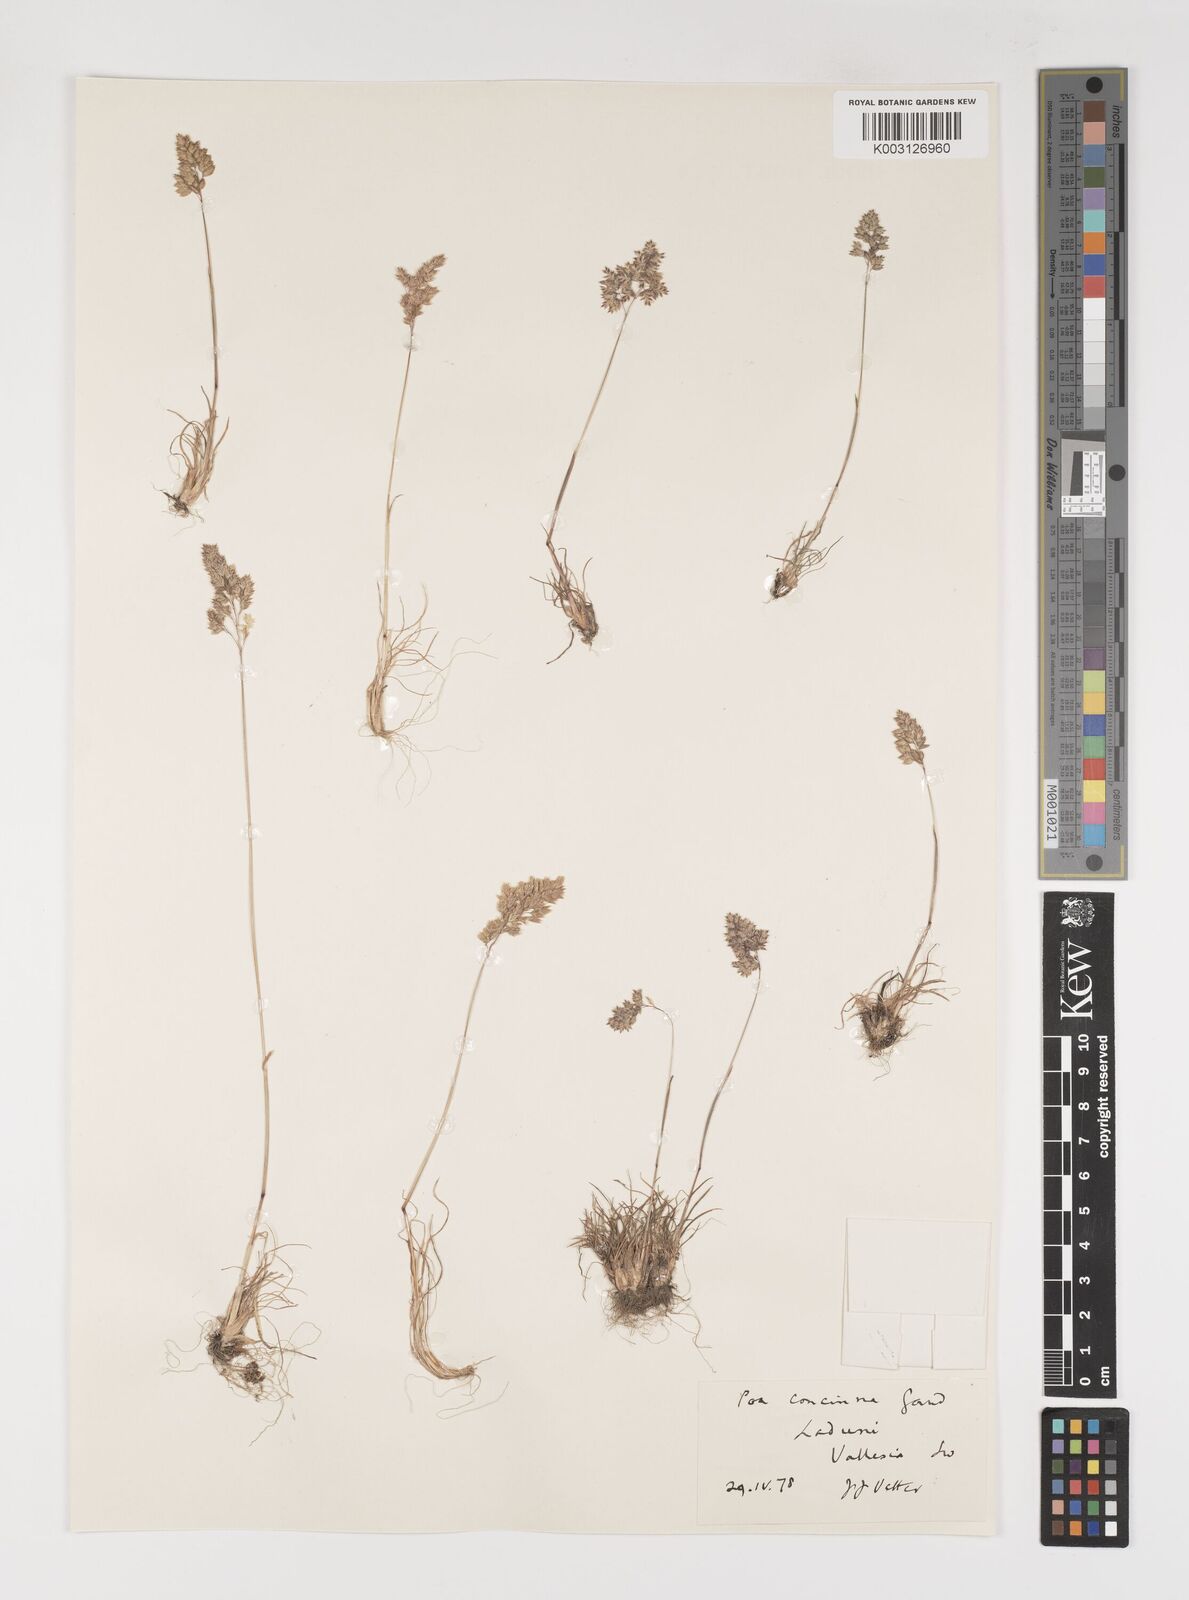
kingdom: Plantae
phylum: Tracheophyta
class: Liliopsida
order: Poales
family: Poaceae
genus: Poa
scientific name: Poa perconcinna
